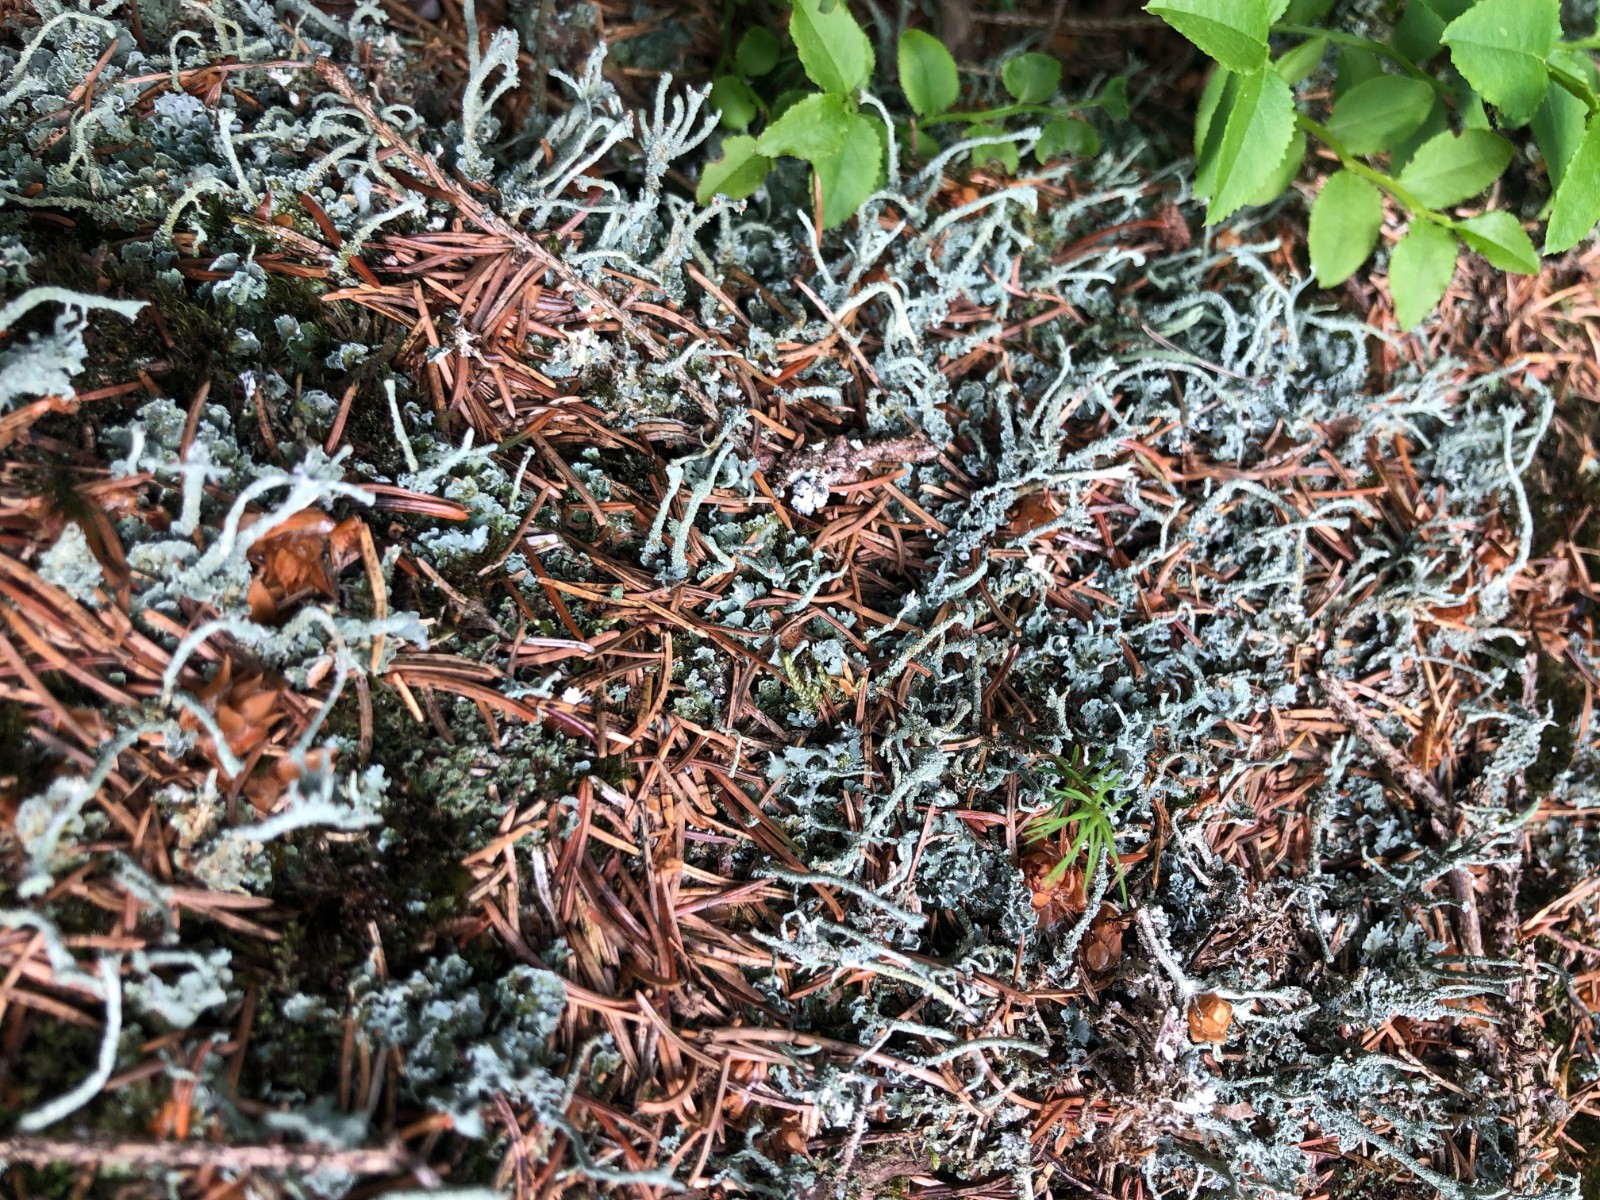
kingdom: Fungi
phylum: Ascomycota
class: Lecanoromycetes
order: Lecanorales
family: Cladoniaceae
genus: Cladonia
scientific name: Cladonia polydactyla
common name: vifte-bægerlav
